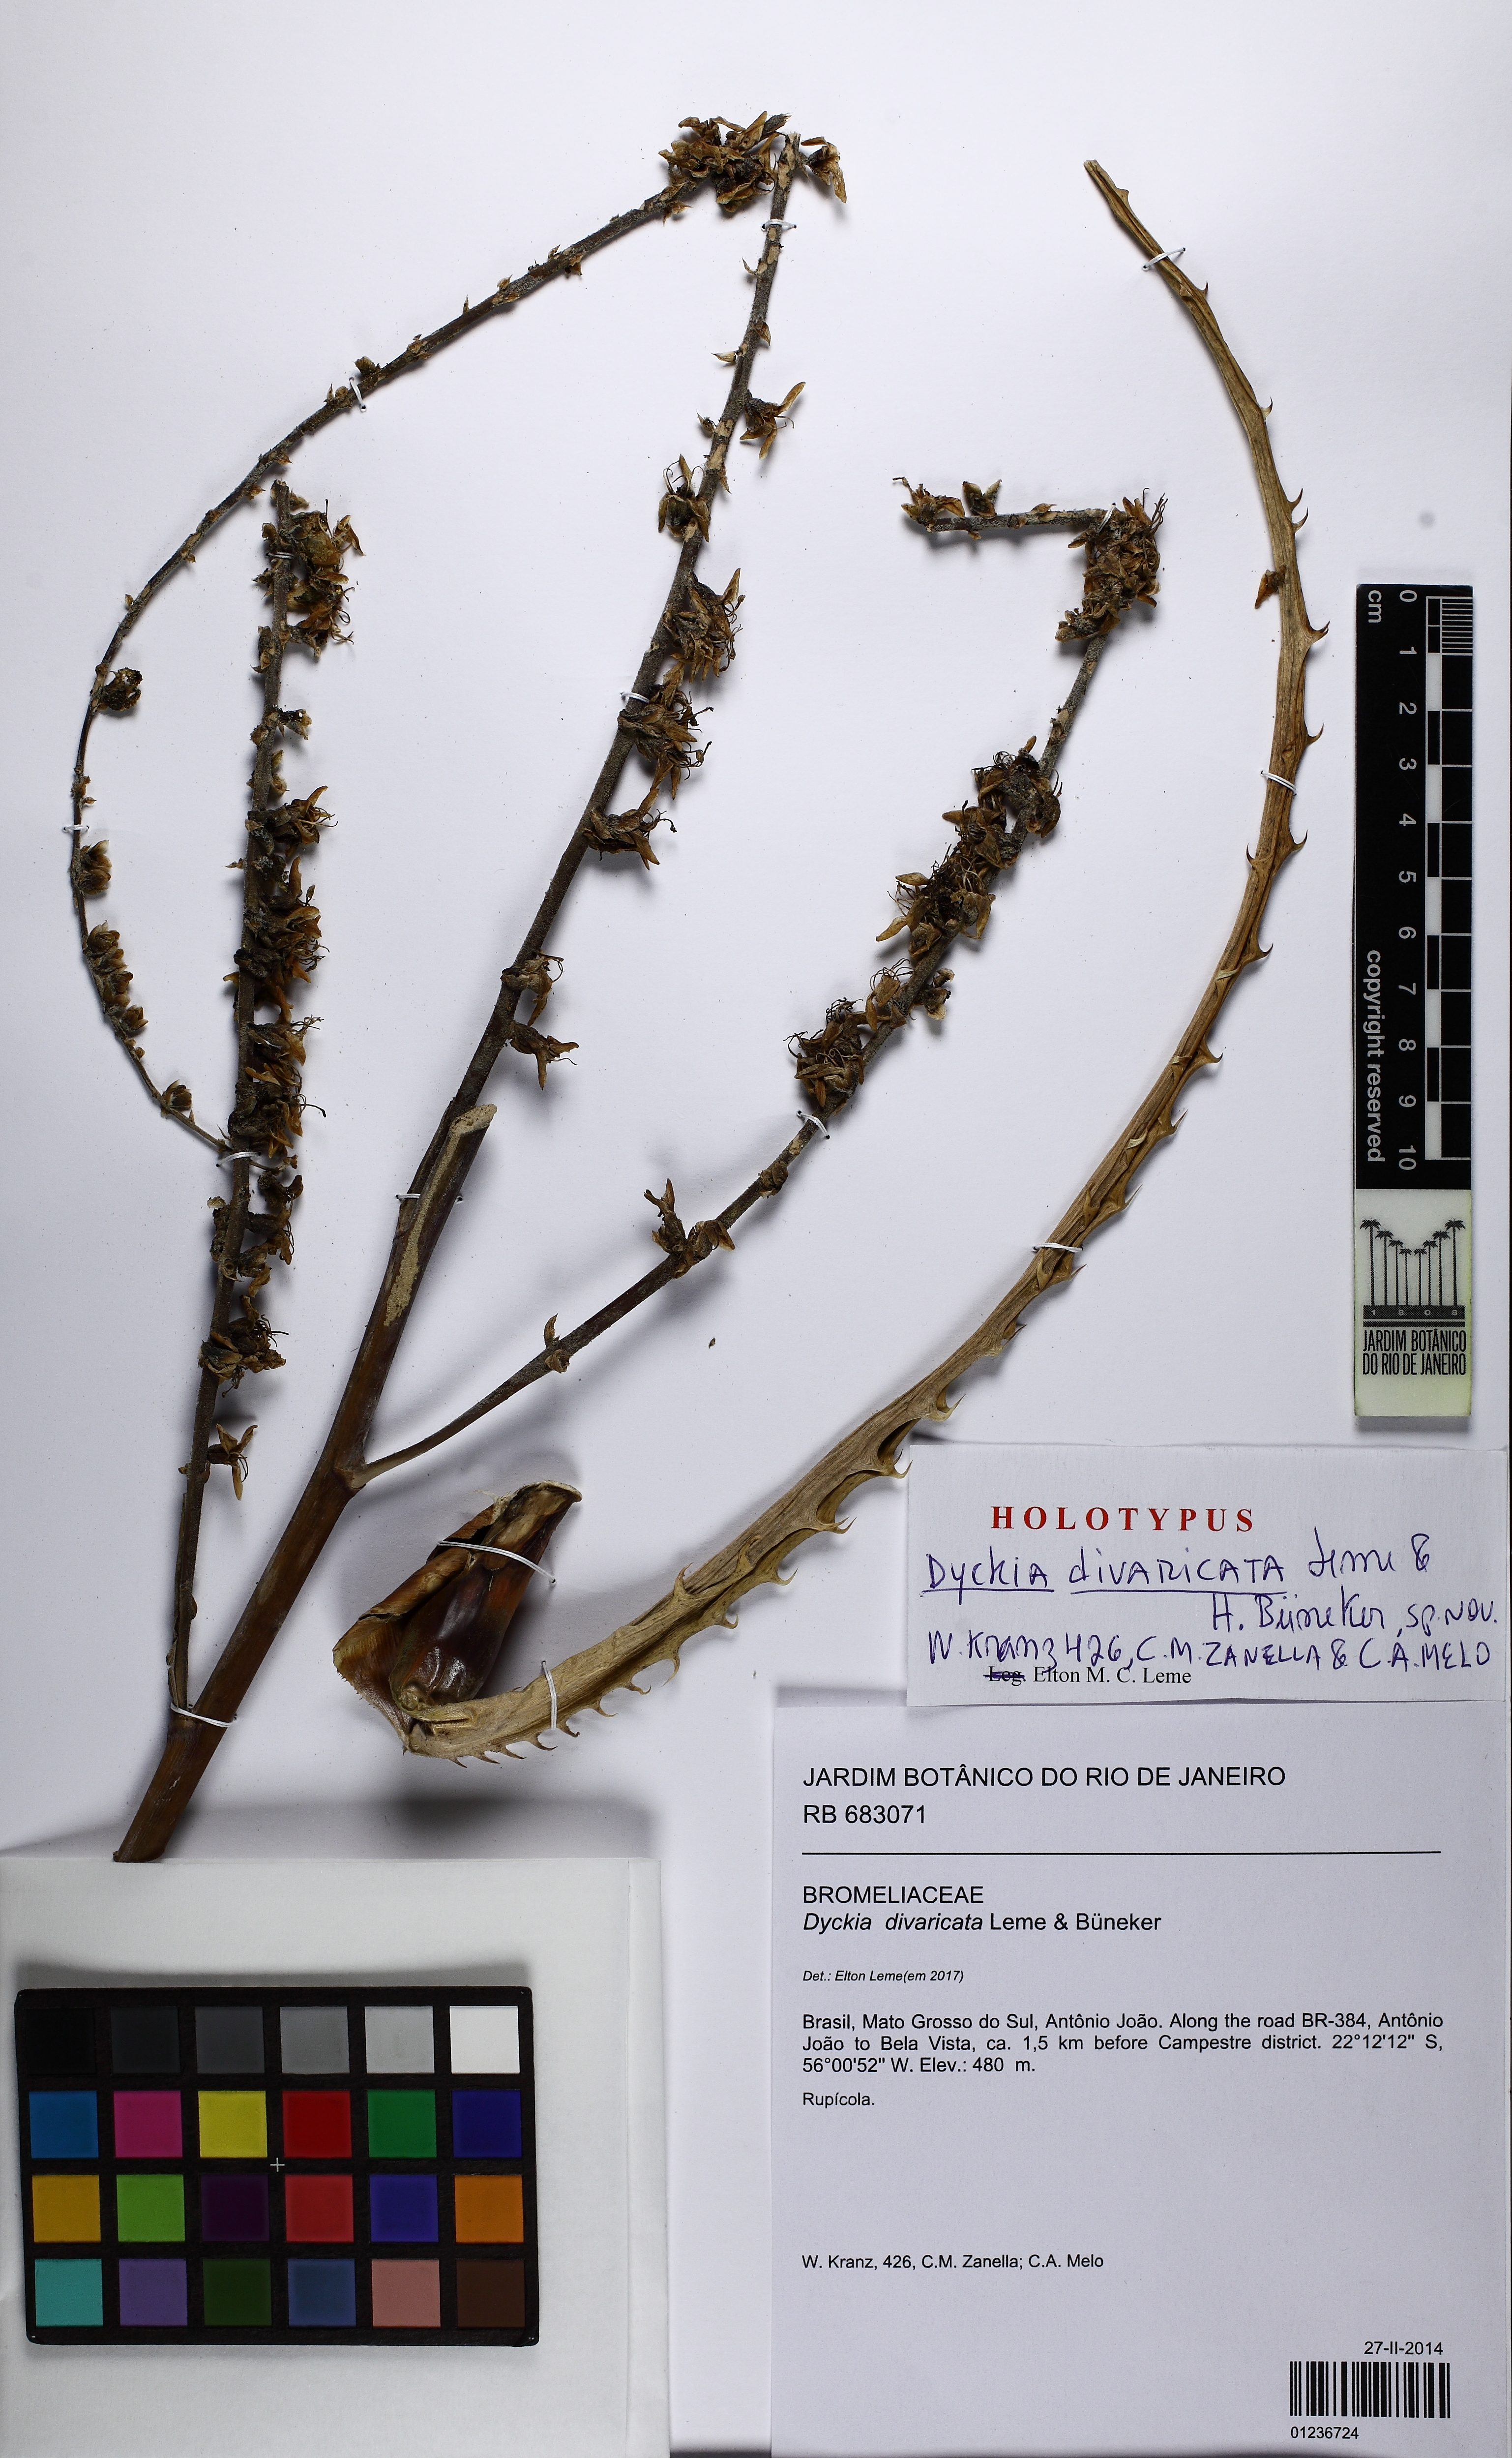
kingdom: Plantae
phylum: Tracheophyta
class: Liliopsida
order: Poales
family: Bromeliaceae
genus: Dyckia
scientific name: Dyckia divaricata
